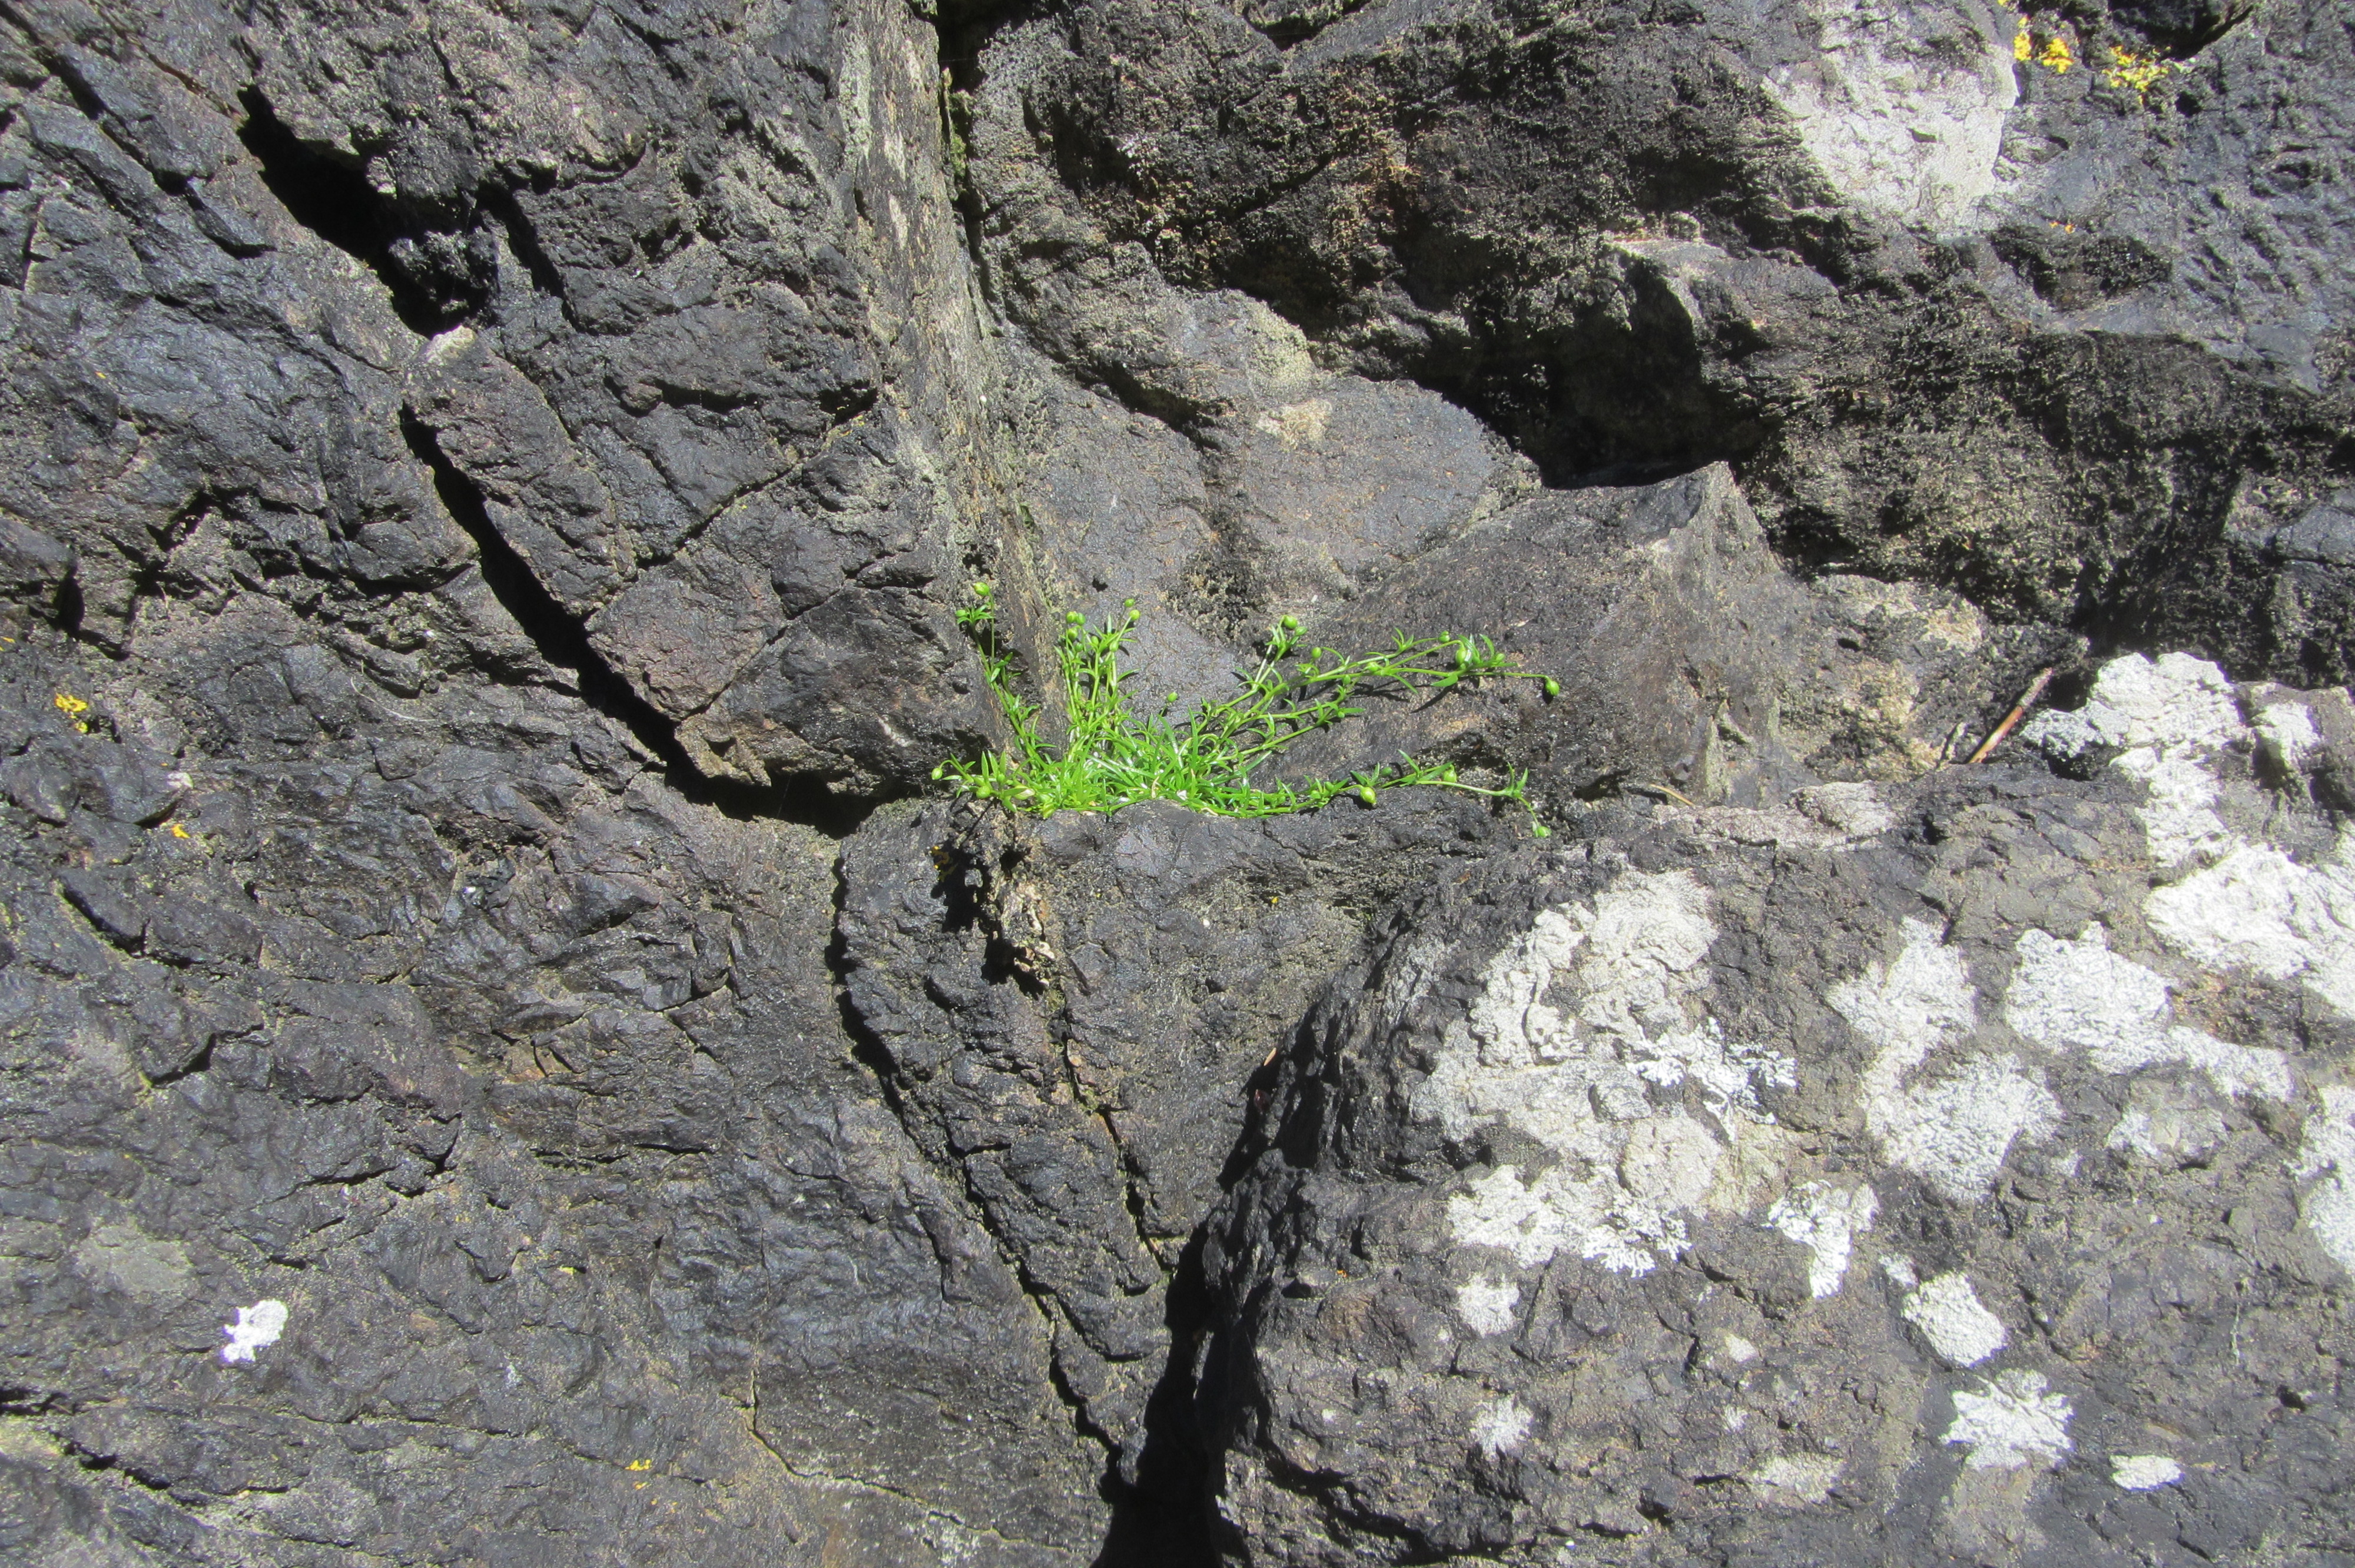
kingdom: Plantae
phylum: Tracheophyta
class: Magnoliopsida
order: Caryophyllales
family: Caryophyllaceae
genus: Sagina
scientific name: Sagina procumbens
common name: Procumbent pearlwort
